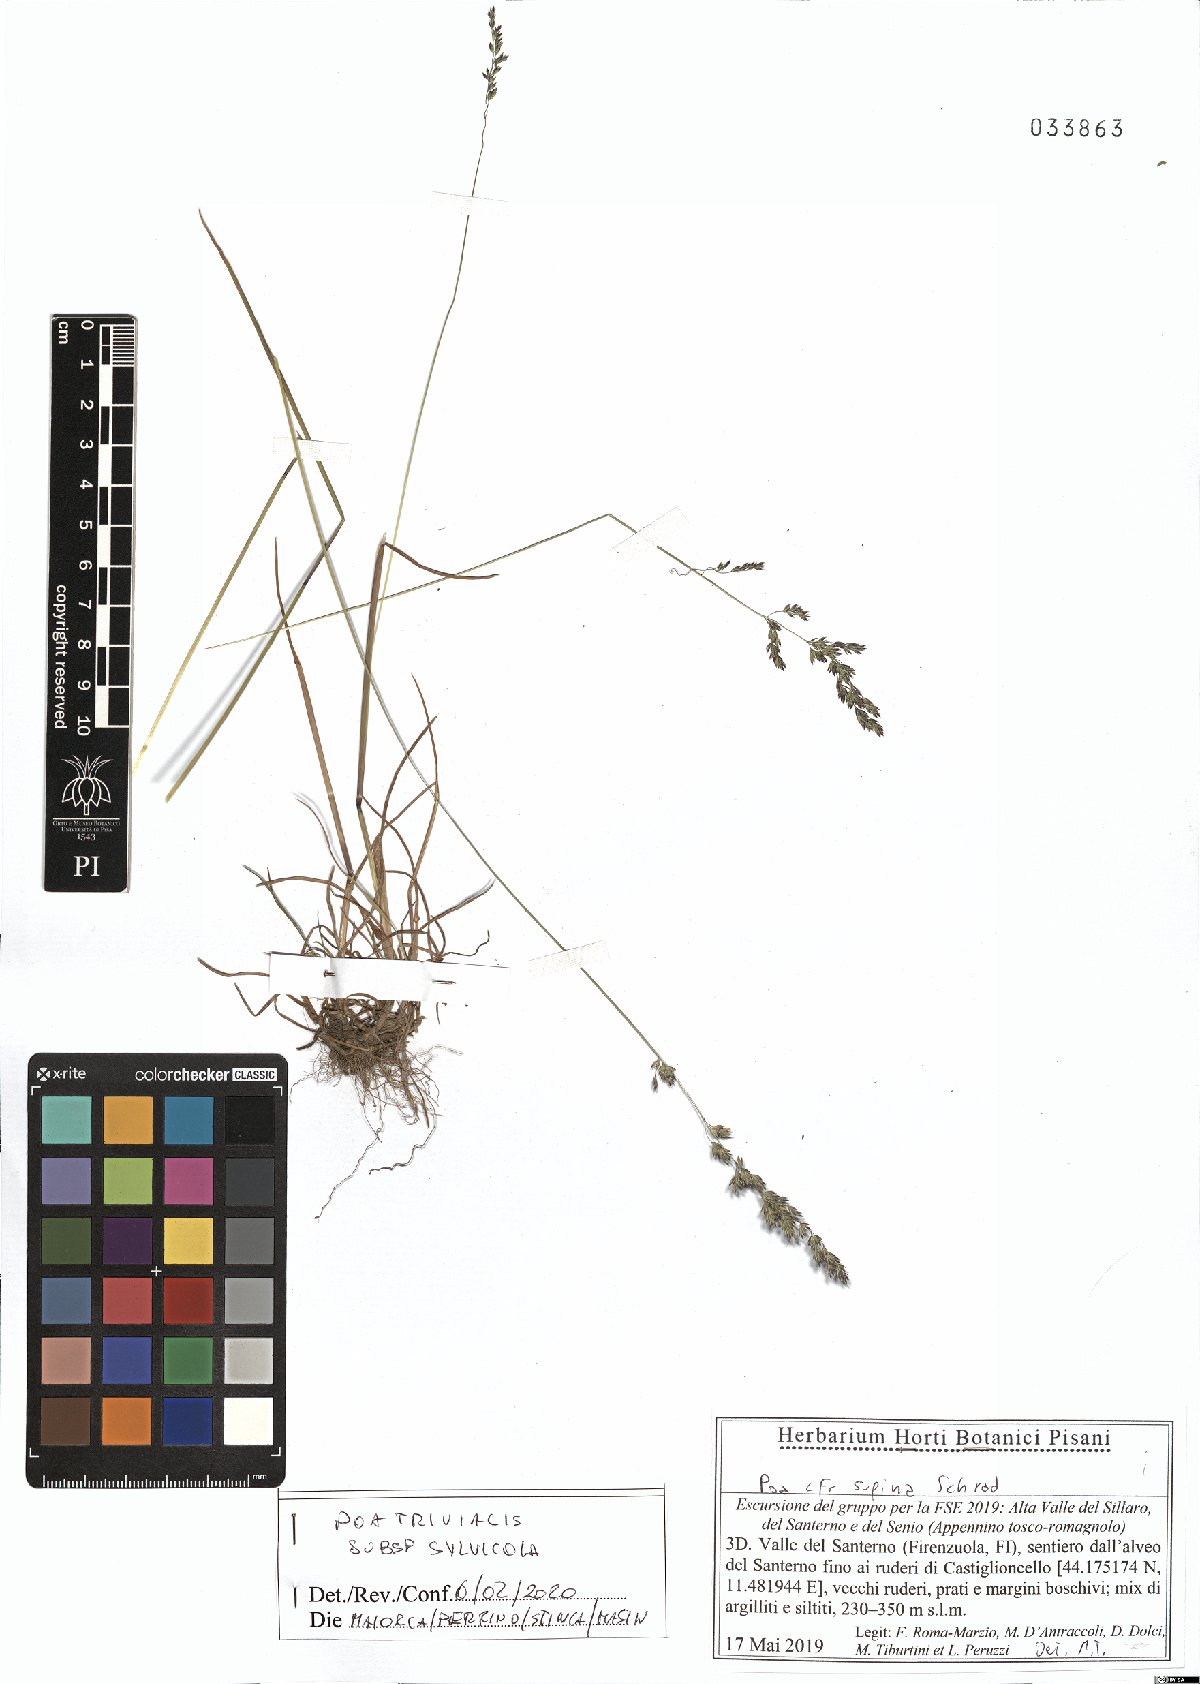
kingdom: Plantae
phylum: Tracheophyta
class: Liliopsida
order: Poales
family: Poaceae
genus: Poa
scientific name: Poa trivialis
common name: Rough bluegrass
